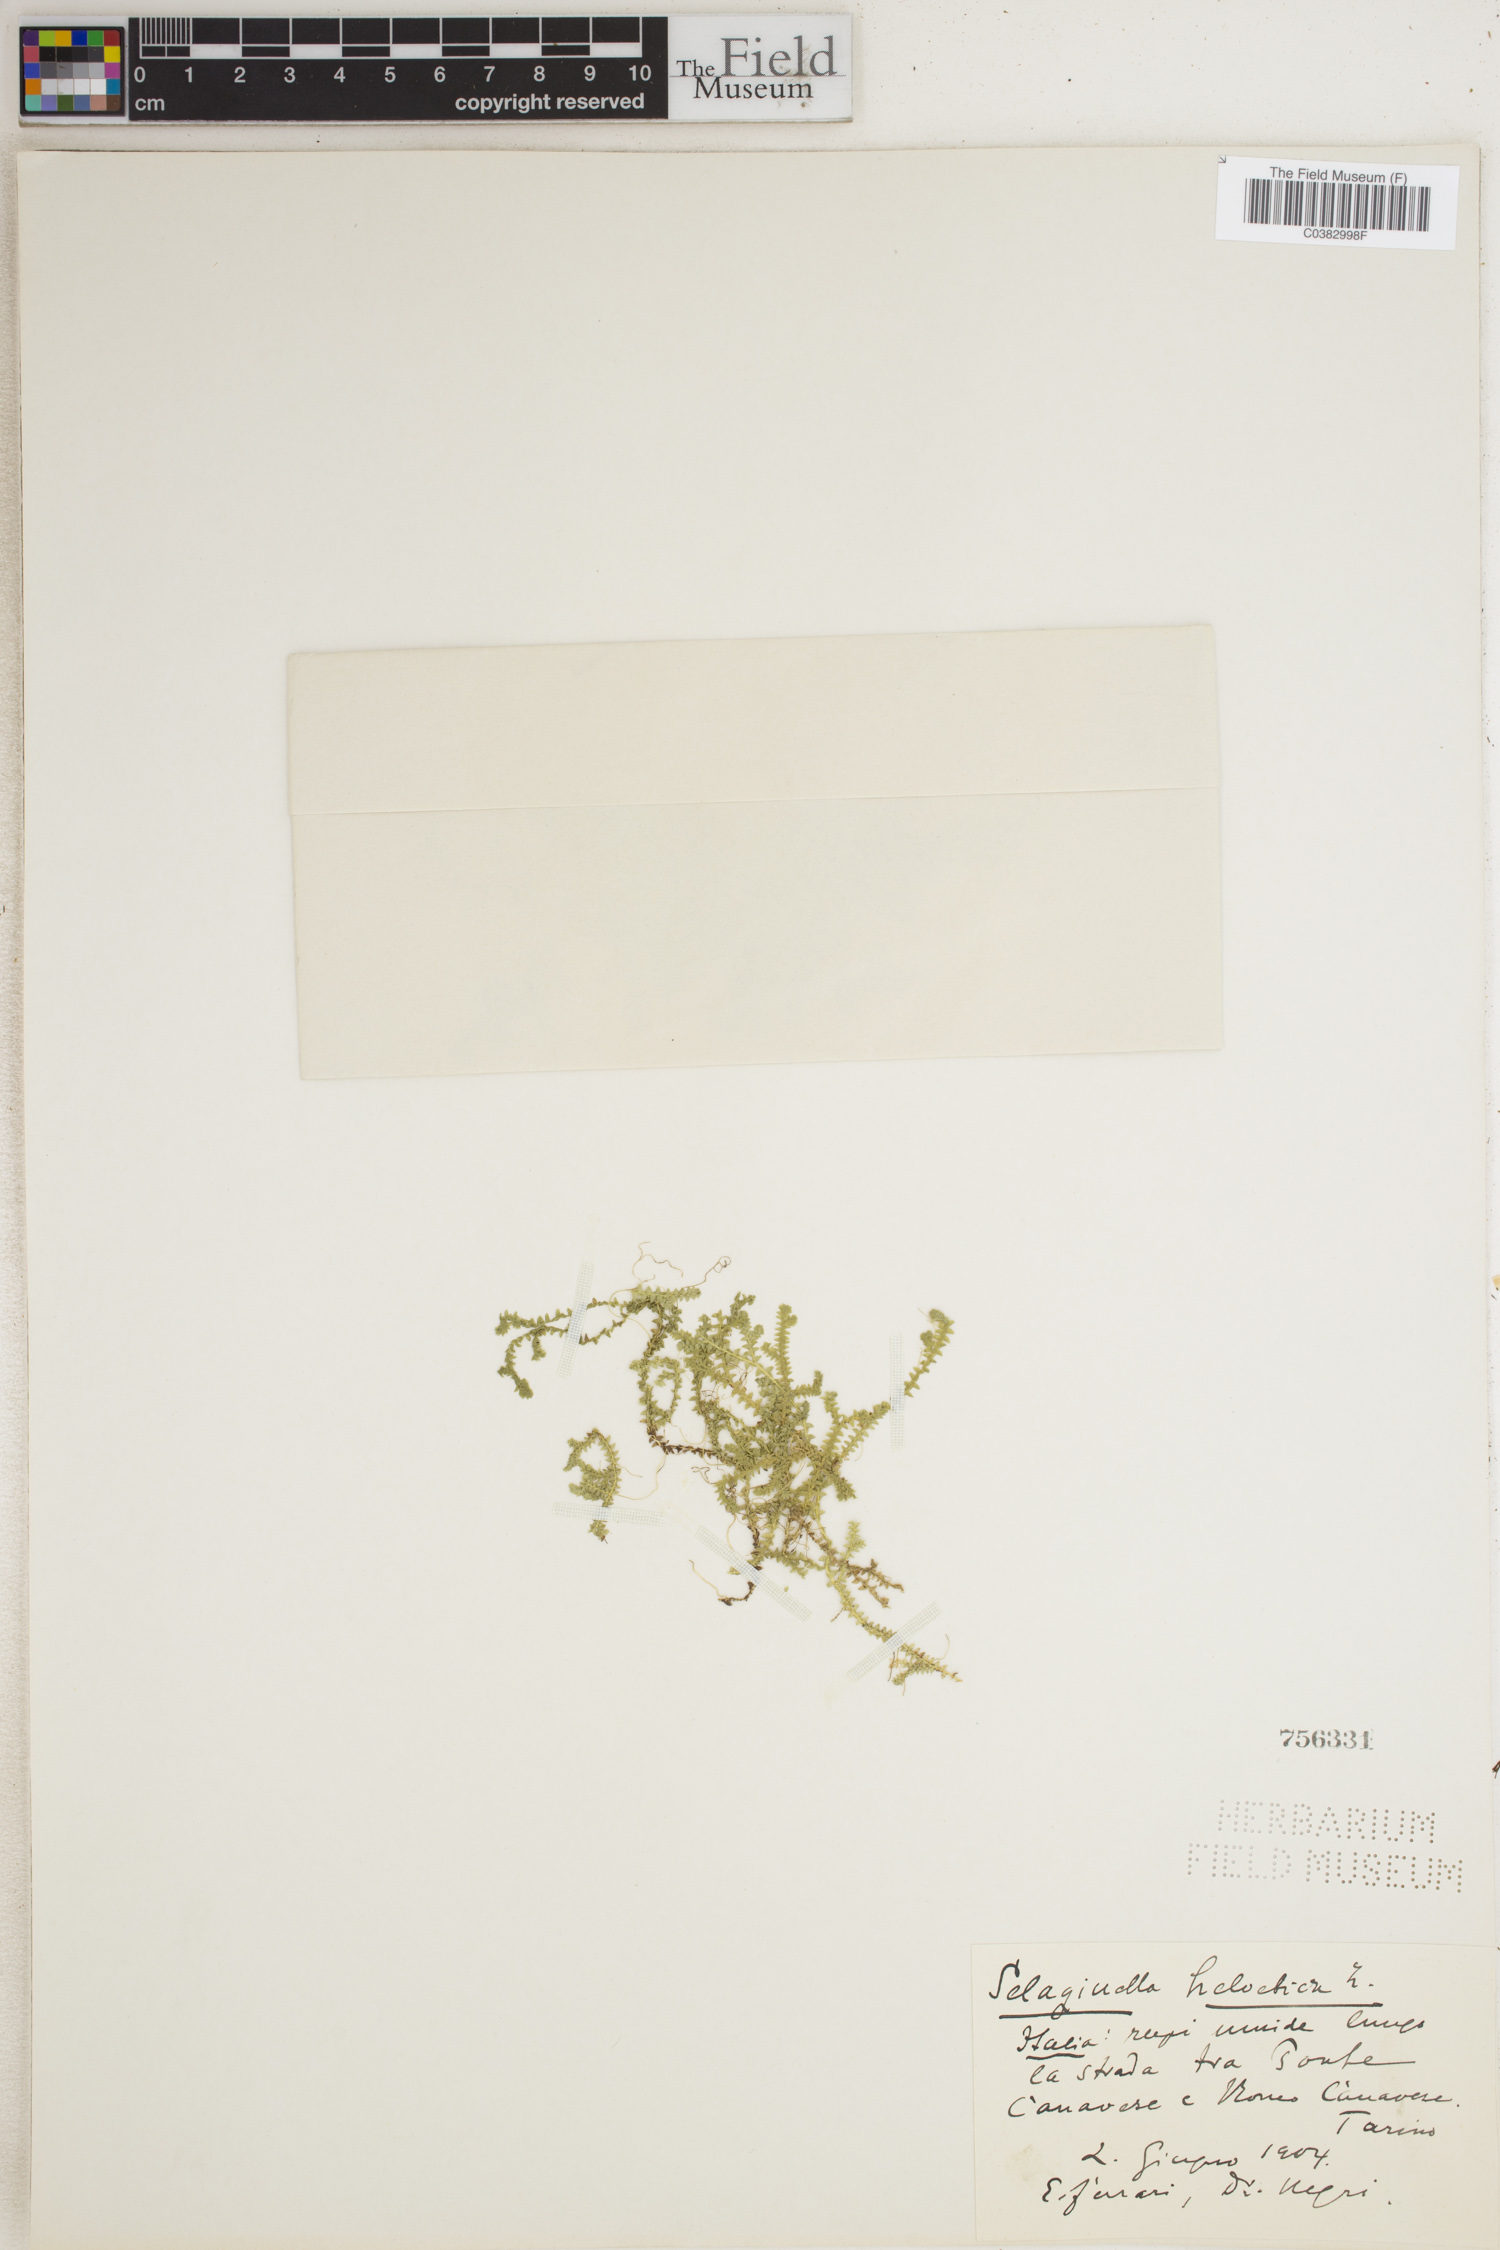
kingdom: Plantae
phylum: Tracheophyta
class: Lycopodiopsida
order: Selaginellales
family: Selaginellaceae
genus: Selaginella
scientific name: Selaginella helvetica
